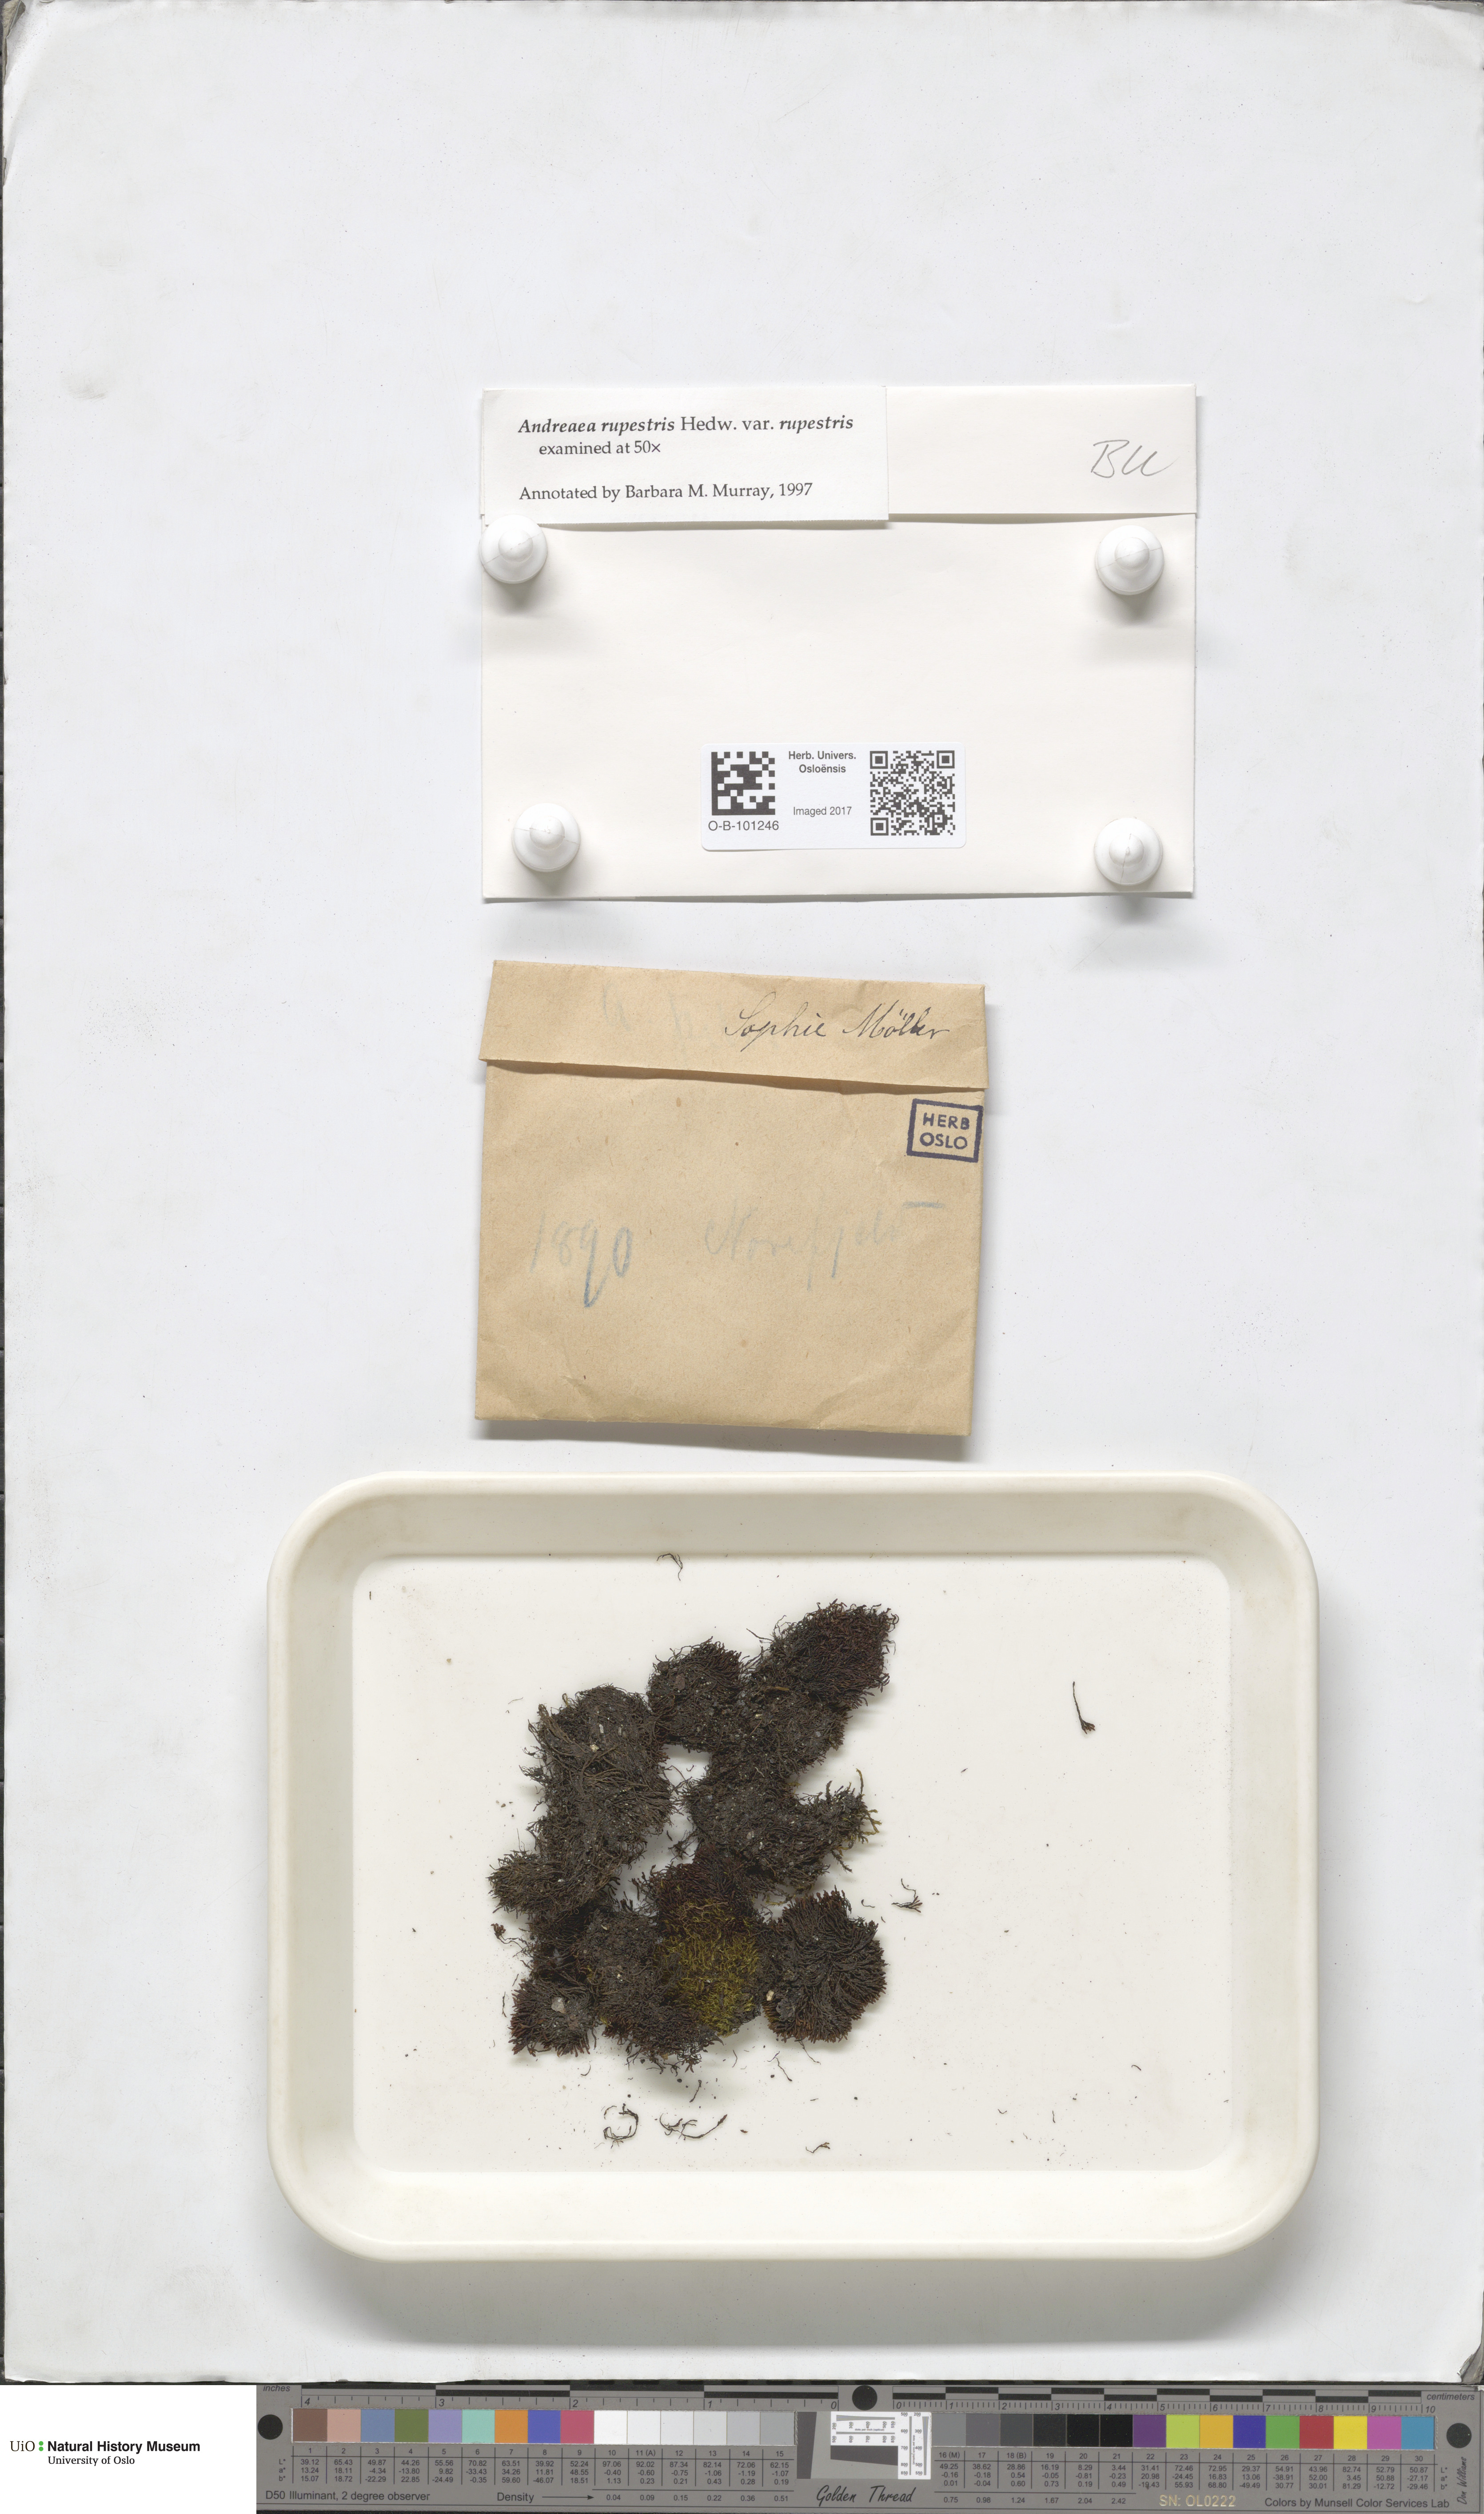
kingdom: Plantae
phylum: Bryophyta
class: Andreaeopsida
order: Andreaeales
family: Andreaeaceae
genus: Andreaea
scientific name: Andreaea rupestris
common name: Black rock moss
